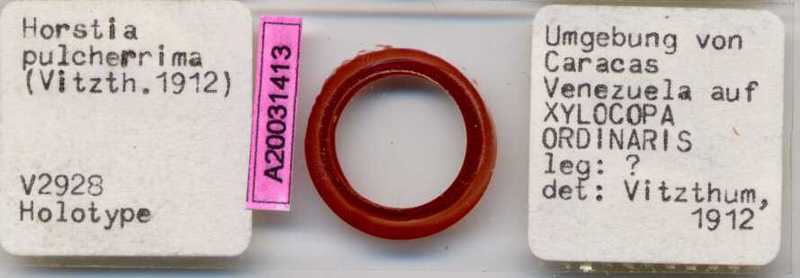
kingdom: Animalia
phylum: Hemichordata
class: Enteropneusta
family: Harrimaniidae
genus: Horstia
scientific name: Horstia
